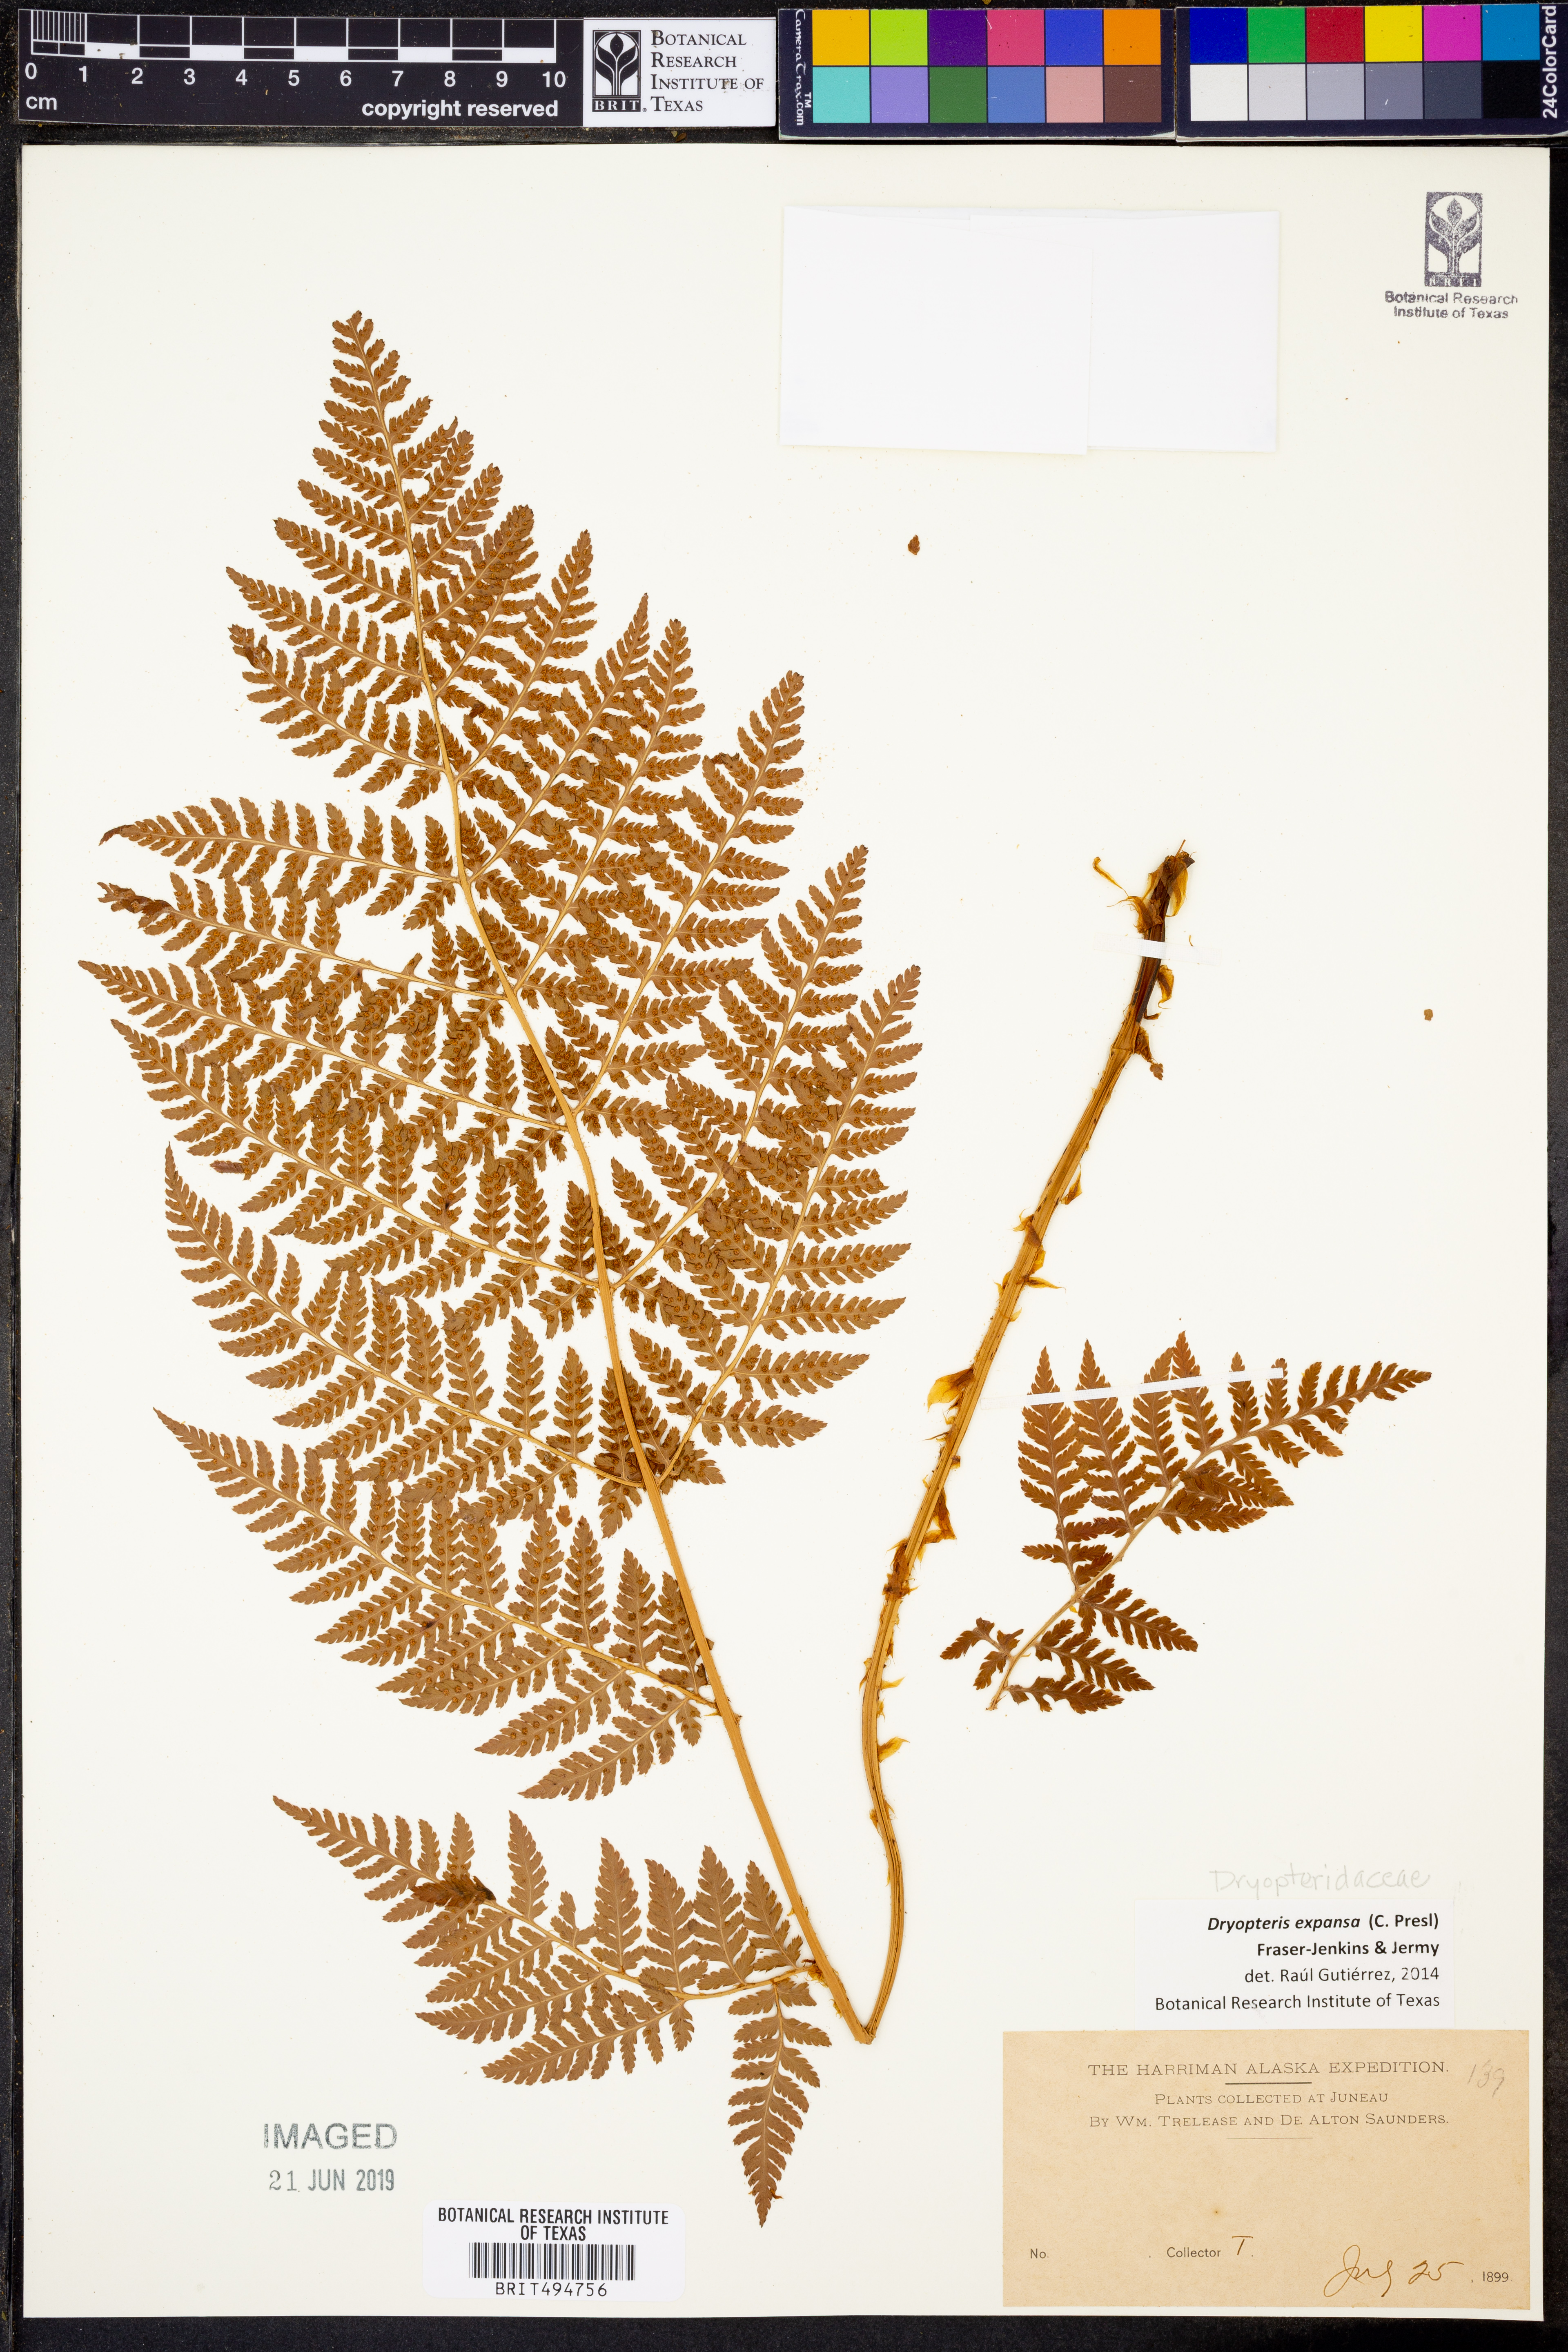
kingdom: Plantae
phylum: Tracheophyta
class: Polypodiopsida
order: Polypodiales
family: Dryopteridaceae
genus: Dryopteris
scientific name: Dryopteris expansa
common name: Northern buckler fern
